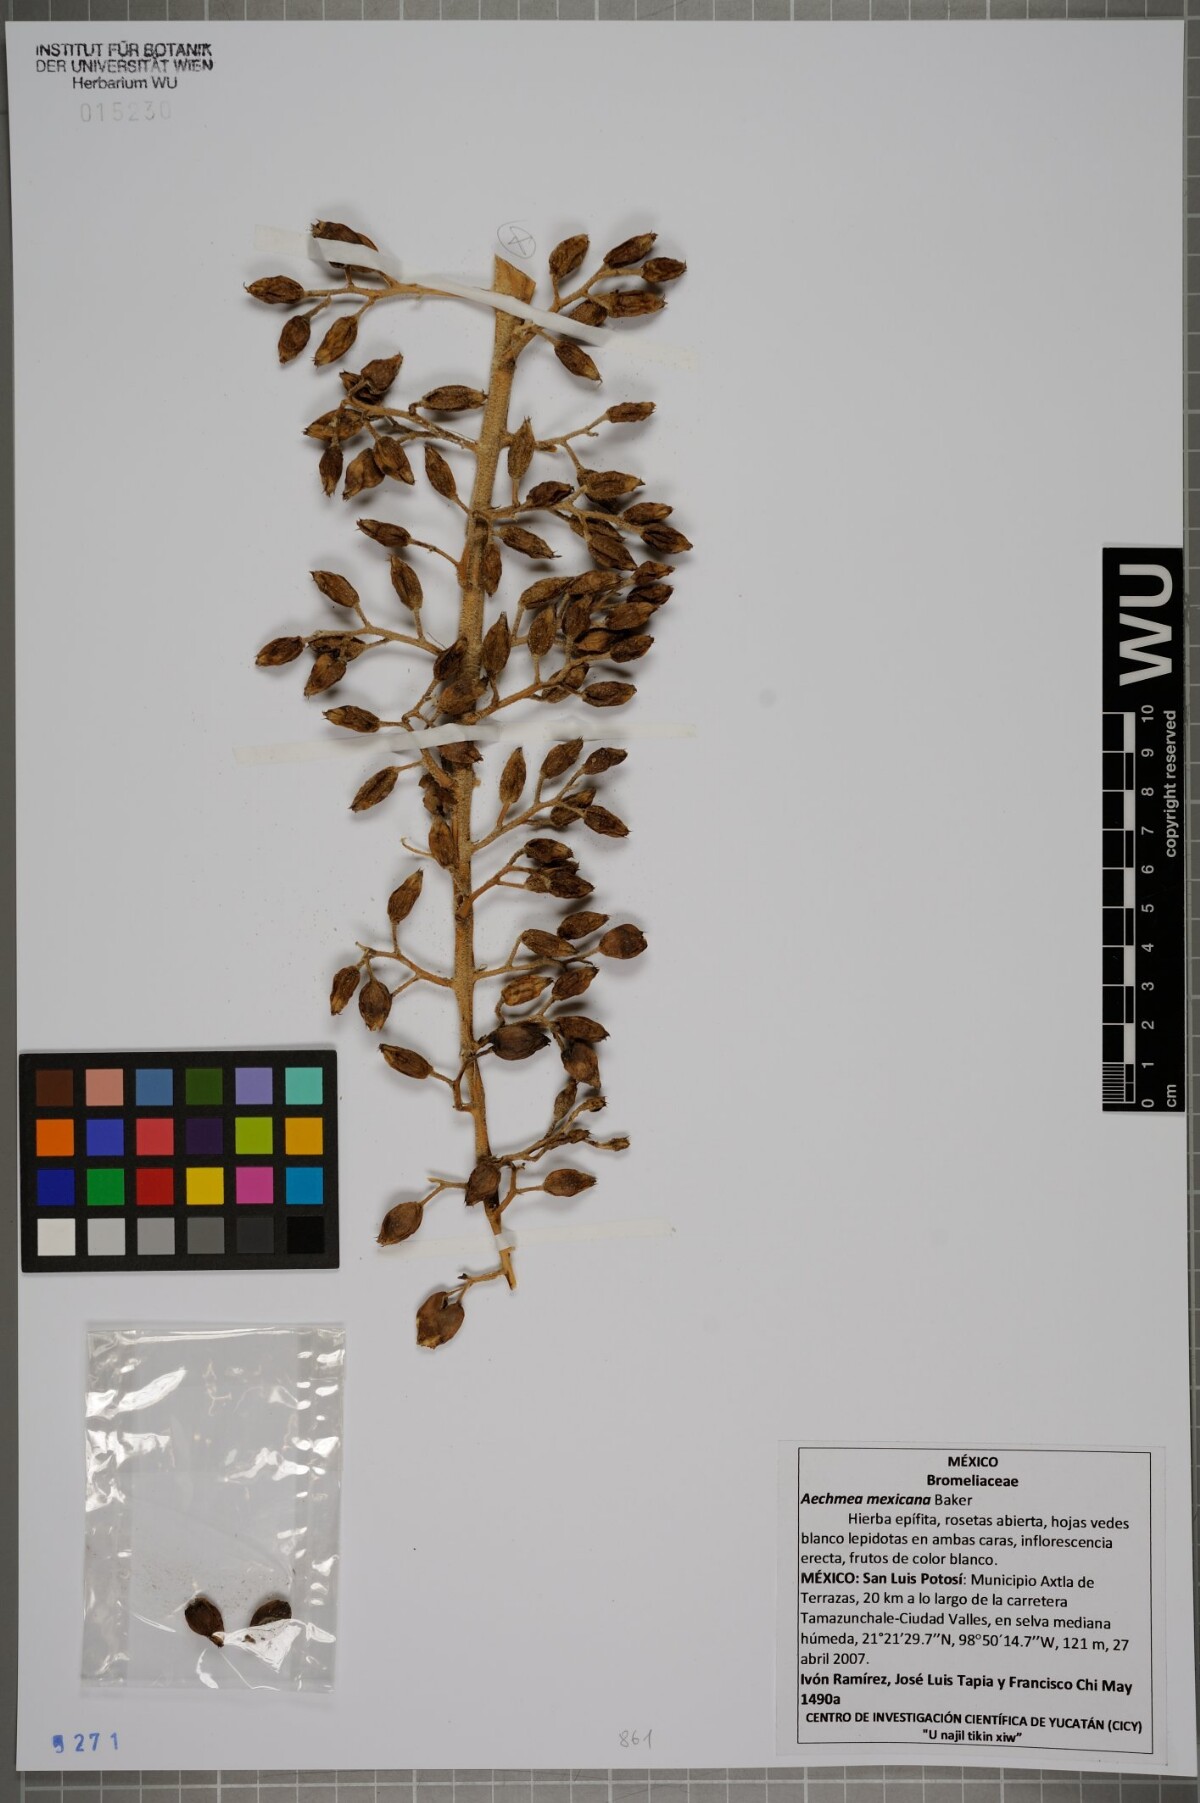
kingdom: Plantae
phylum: Tracheophyta
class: Liliopsida
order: Poales
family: Bromeliaceae
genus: Aechmea
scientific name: Aechmea mexicana
